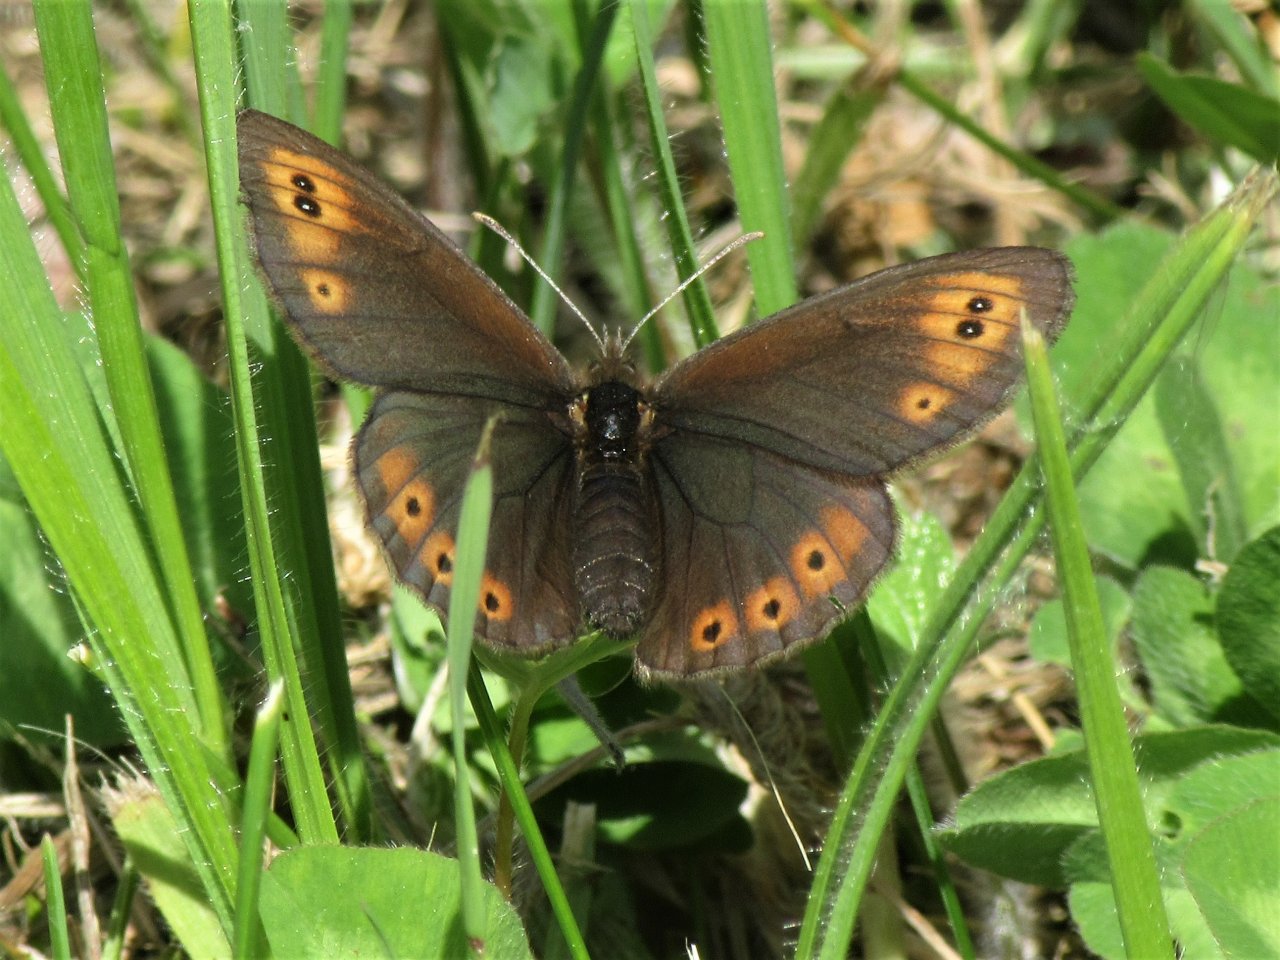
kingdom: Animalia
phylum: Arthropoda
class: Insecta
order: Lepidoptera
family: Nymphalidae
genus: Erebia
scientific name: Erebia epipsodea
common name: Common Alpine
